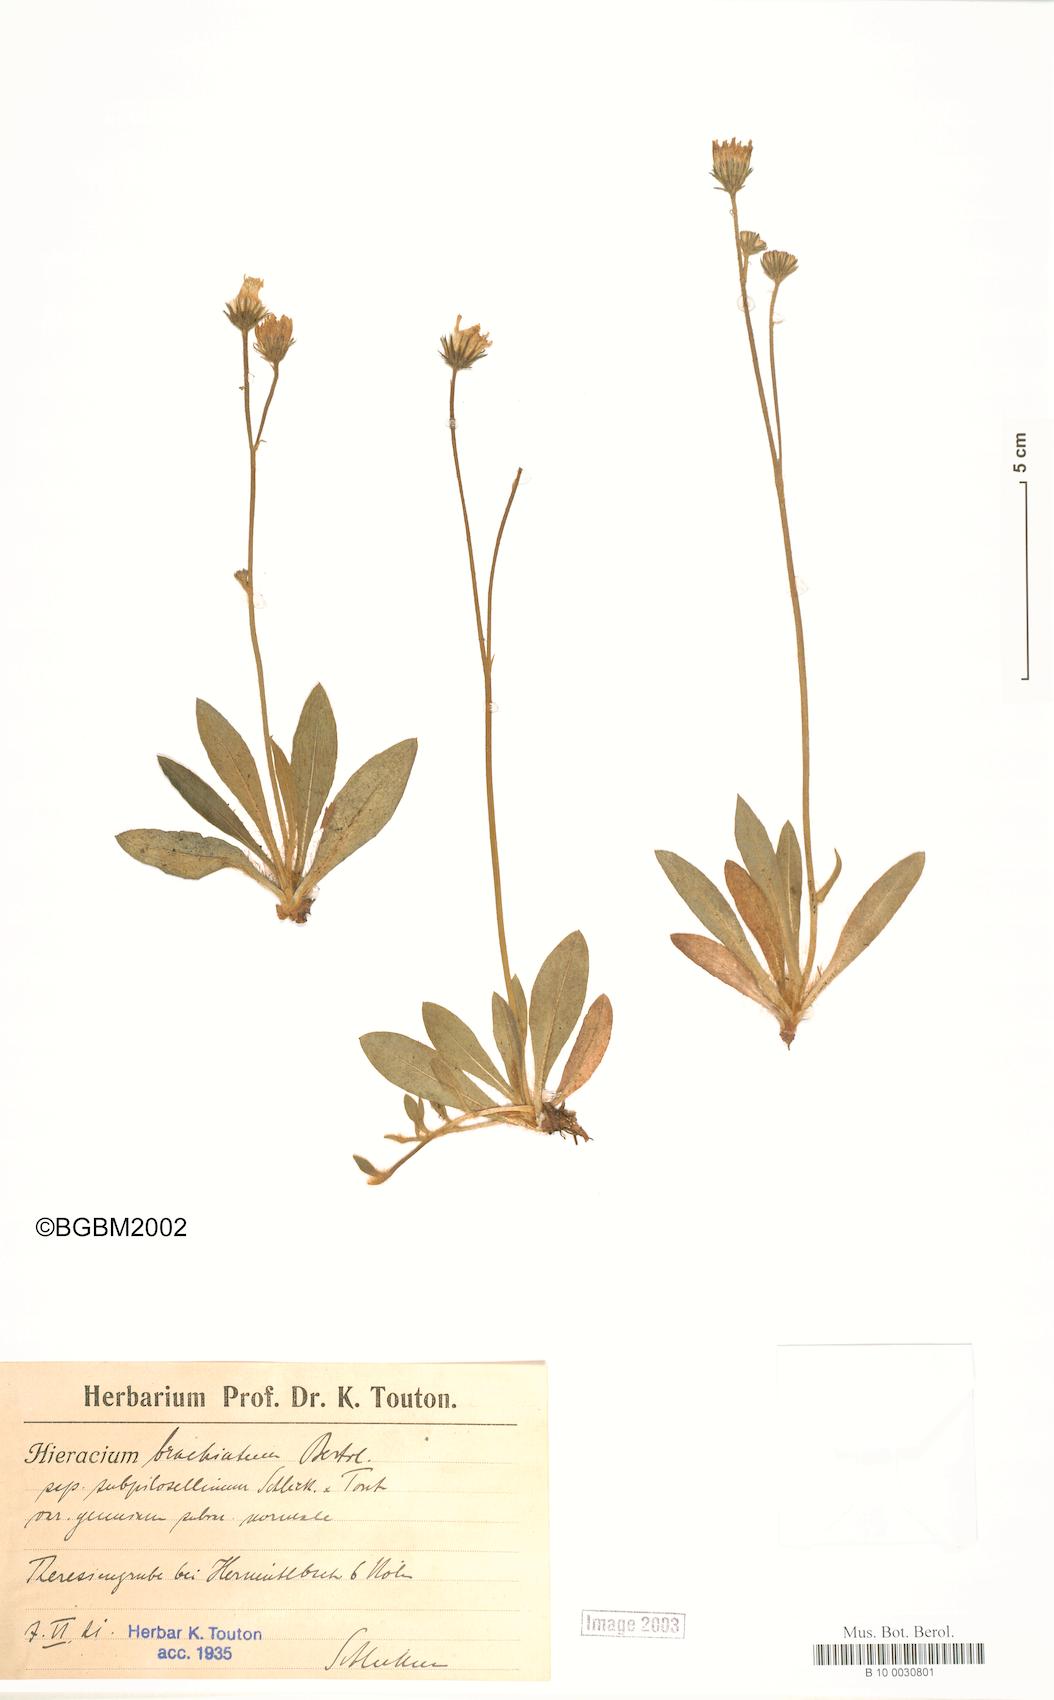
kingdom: Plantae
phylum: Tracheophyta
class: Magnoliopsida
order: Asterales
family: Asteraceae
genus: Pilosella
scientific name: Pilosella acutifolia
